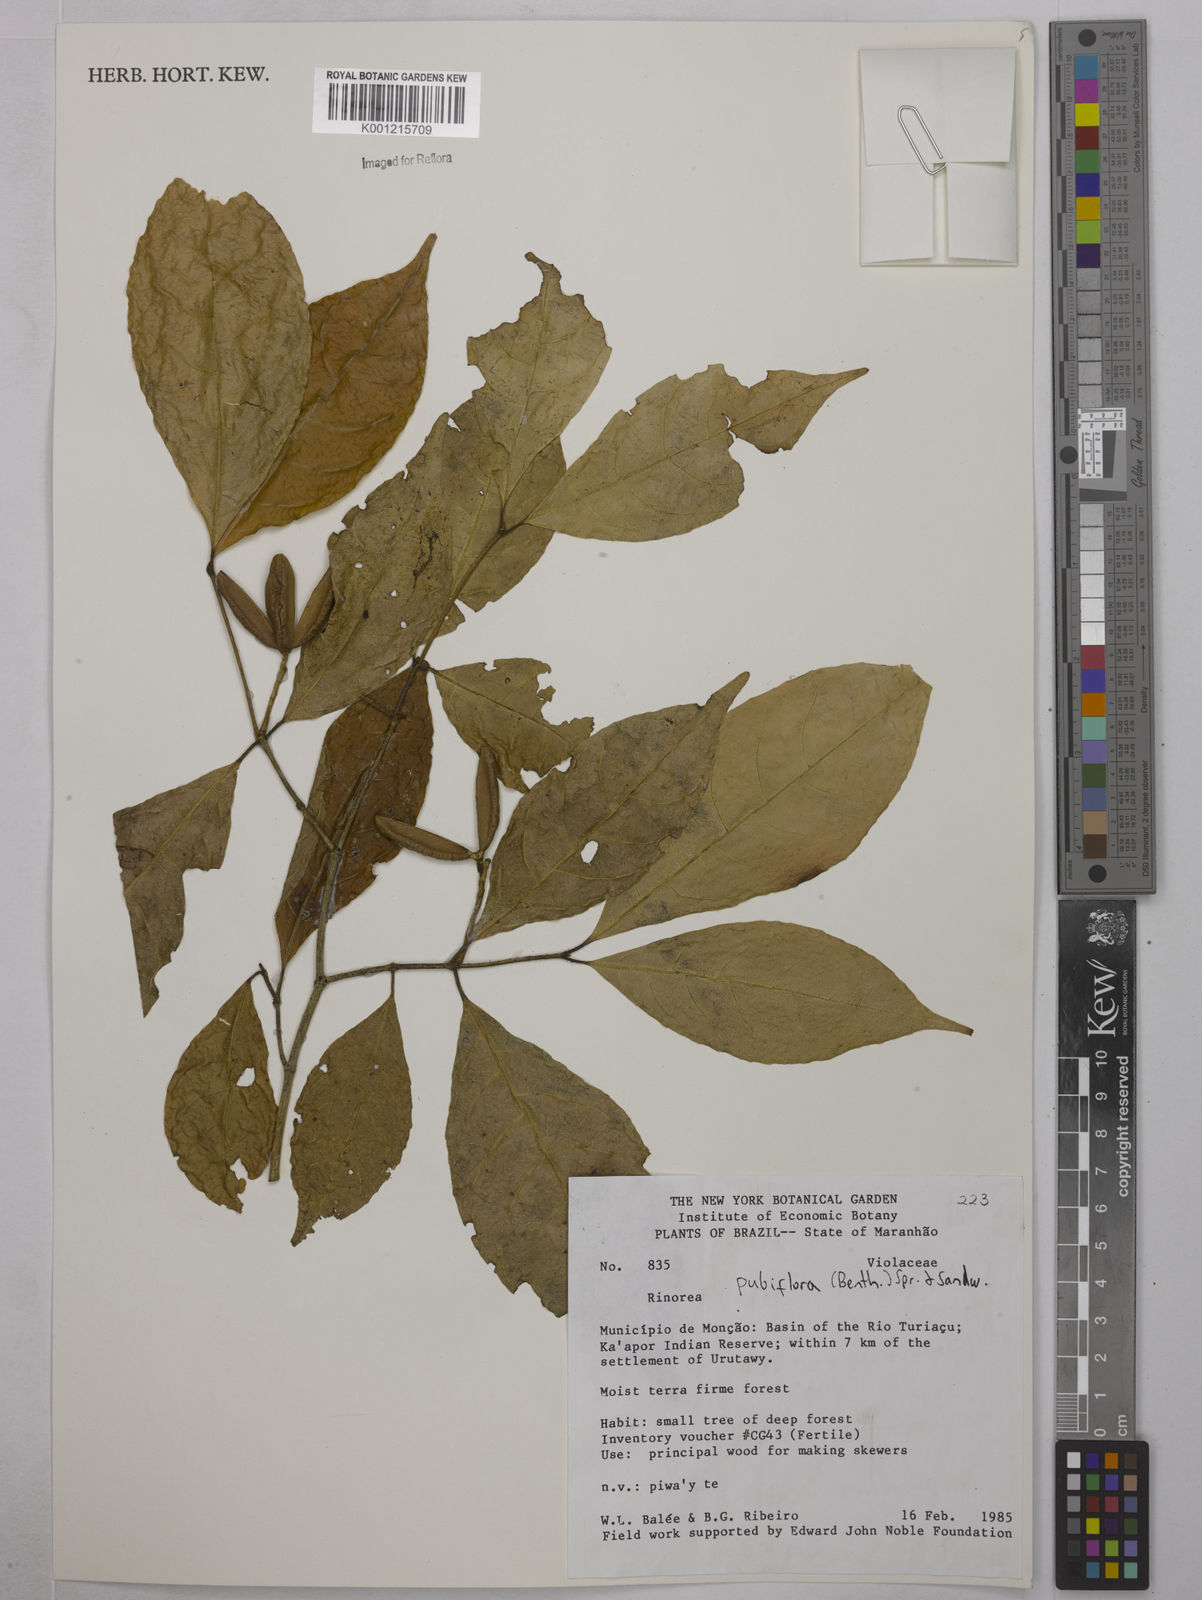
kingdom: Plantae
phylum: Tracheophyta
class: Magnoliopsida
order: Malpighiales
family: Violaceae
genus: Rinorea
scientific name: Rinorea pubiflora
